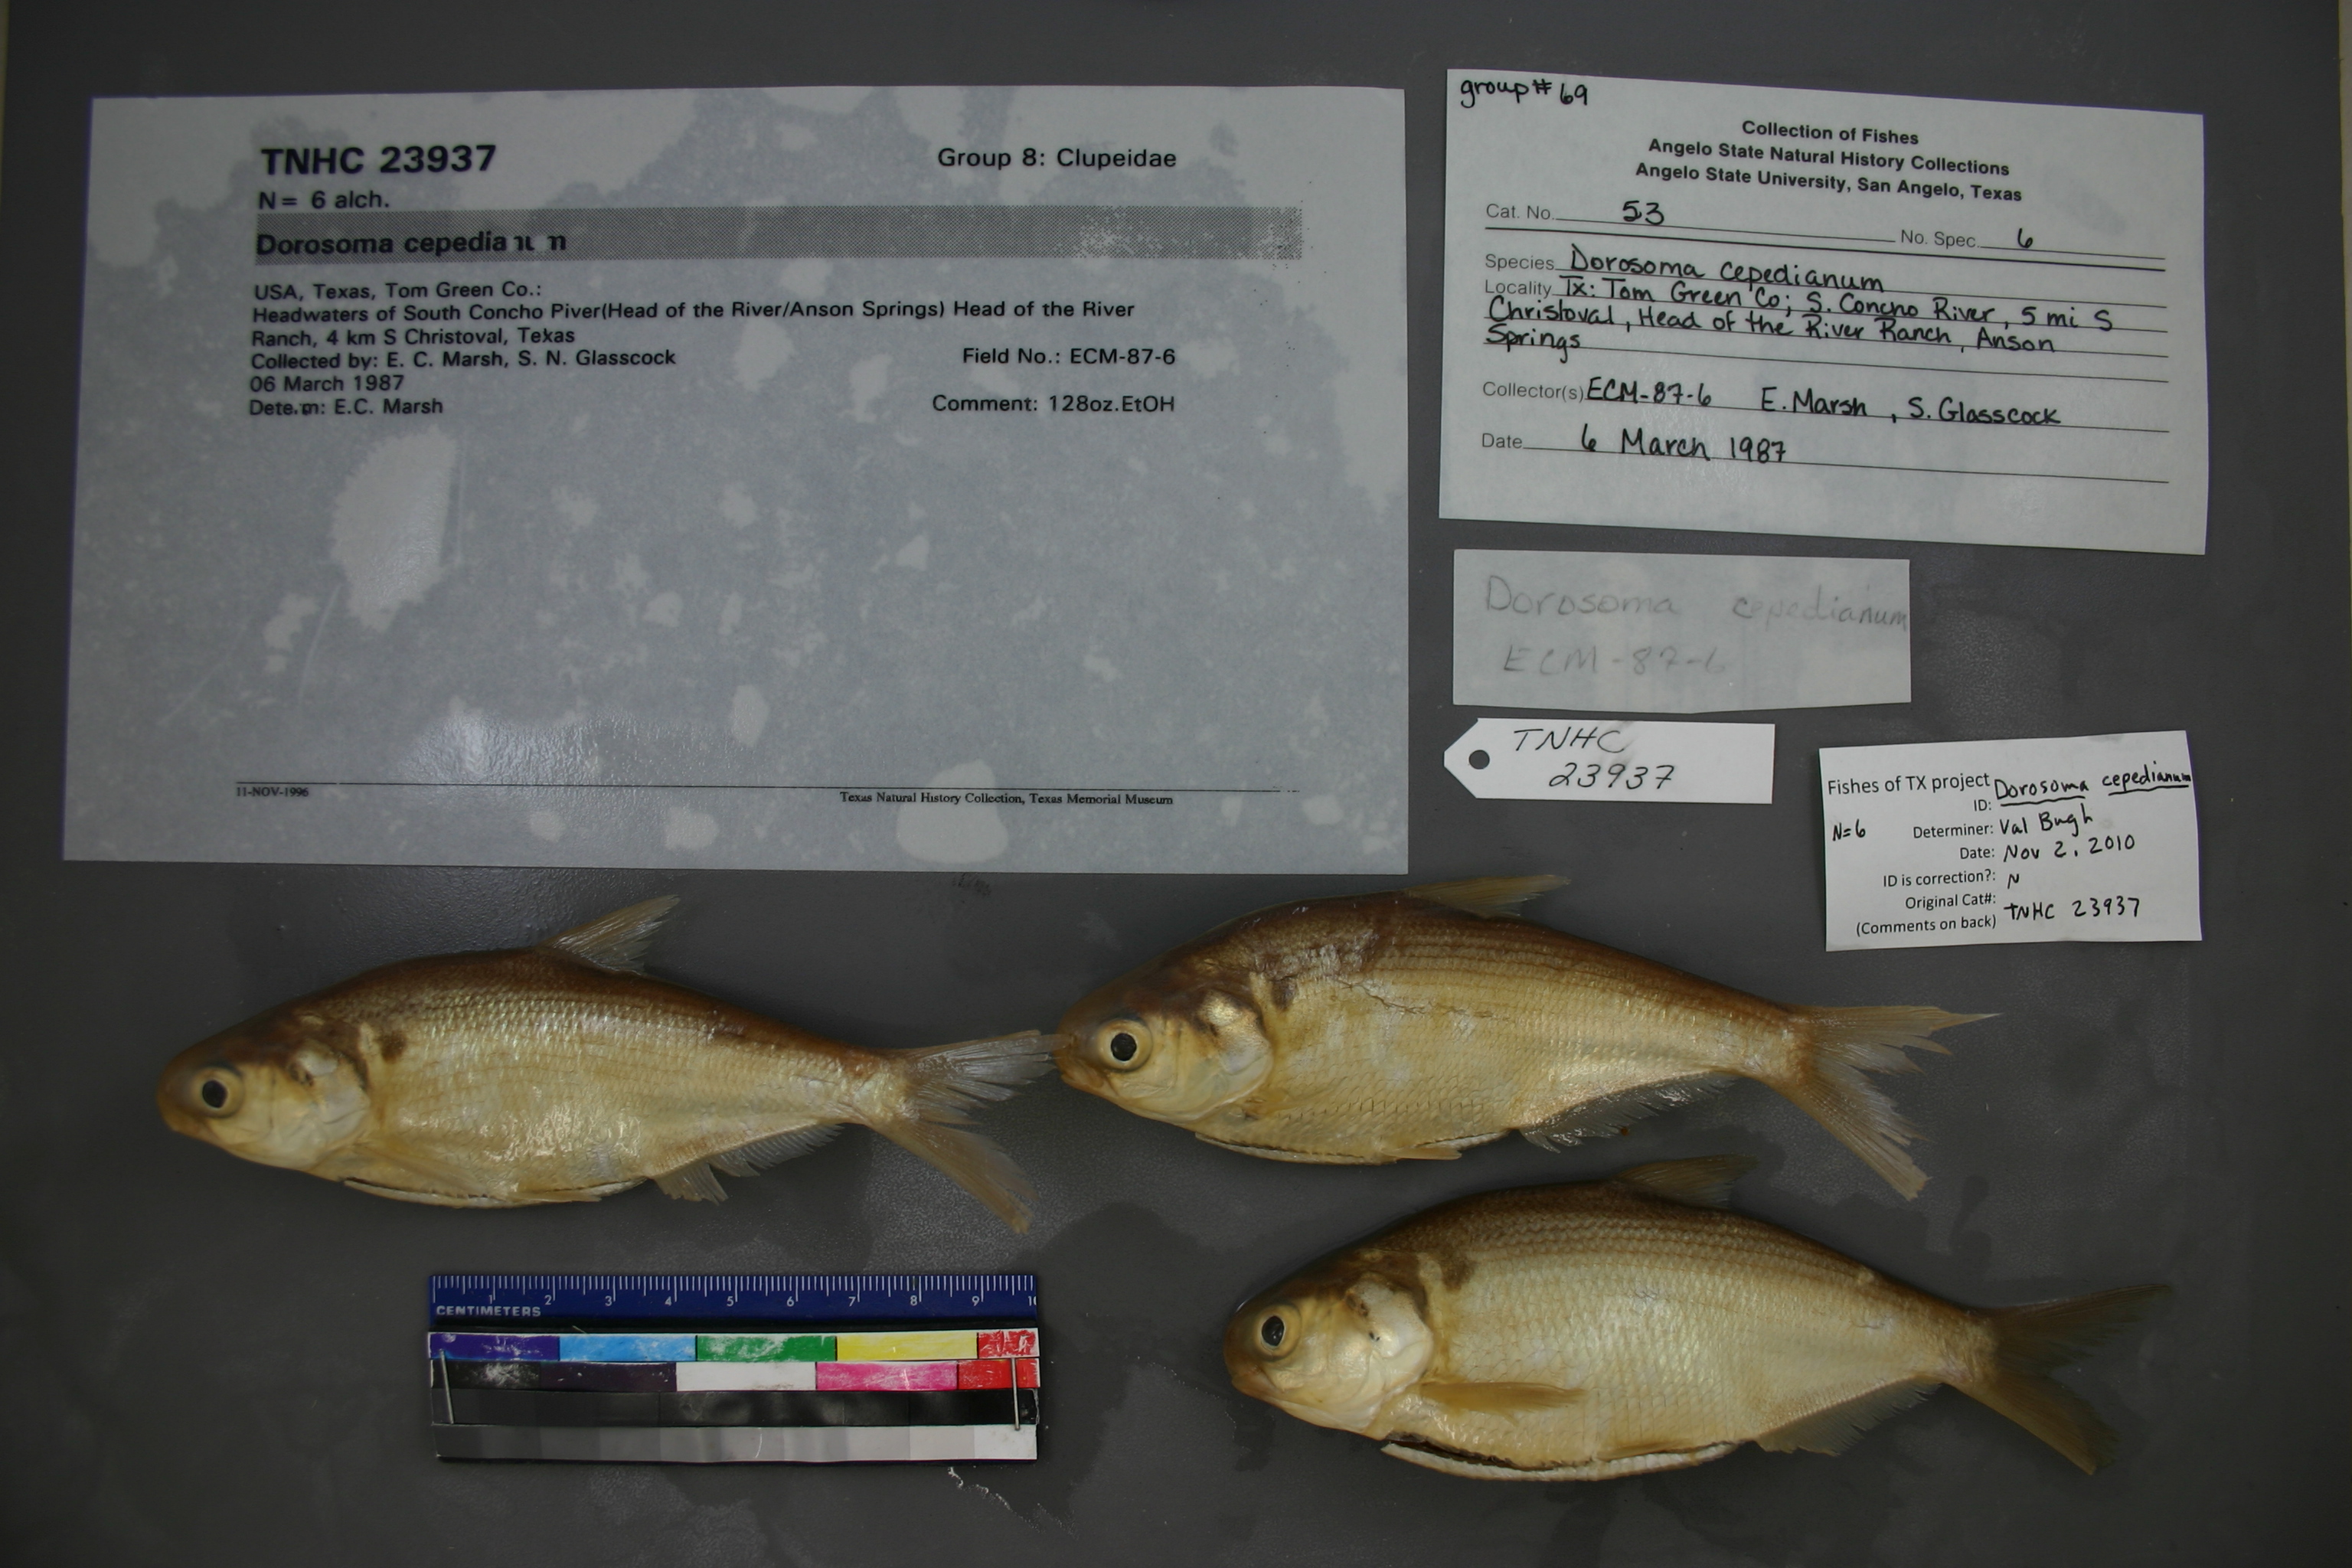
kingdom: Animalia
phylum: Chordata
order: Clupeiformes
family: Clupeidae
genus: Dorosoma
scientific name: Dorosoma cepedianum
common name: Gizzard shad
